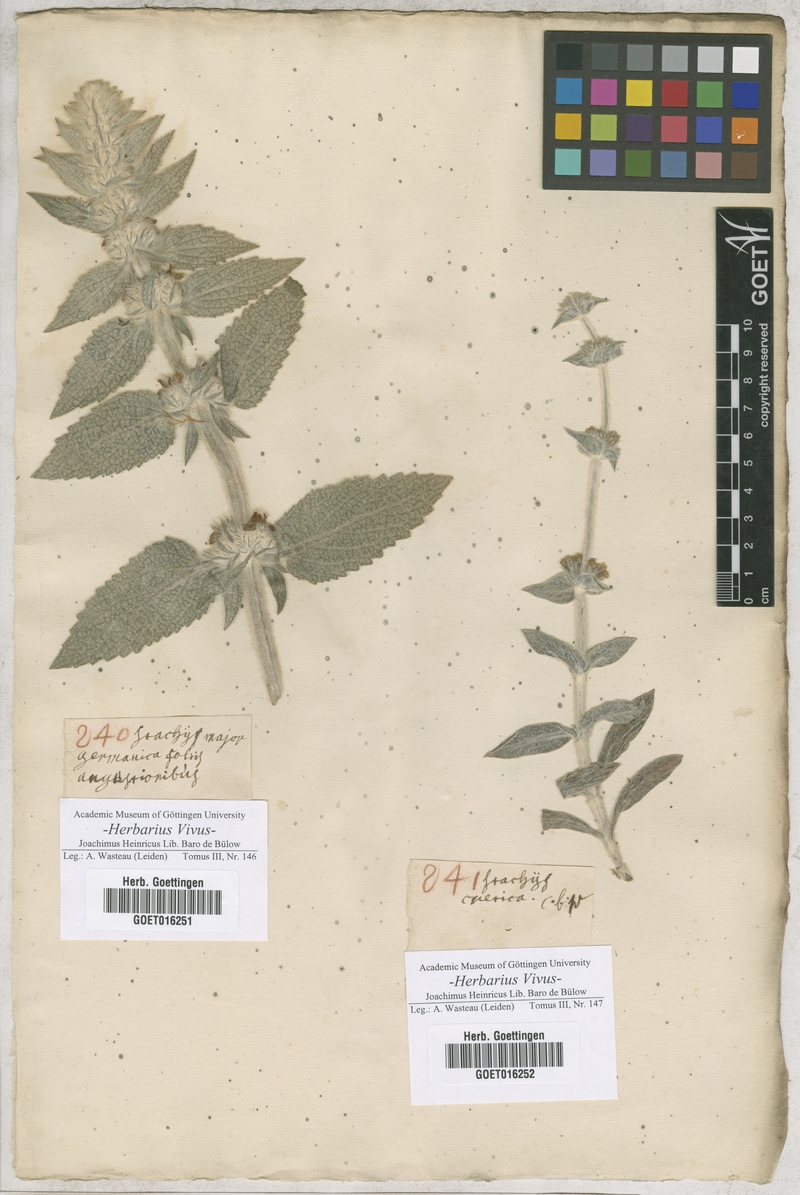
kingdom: Plantae
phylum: Tracheophyta
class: Magnoliopsida
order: Lamiales
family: Lamiaceae
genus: Stachys
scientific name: Stachys germanica
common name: Downy woundwort
